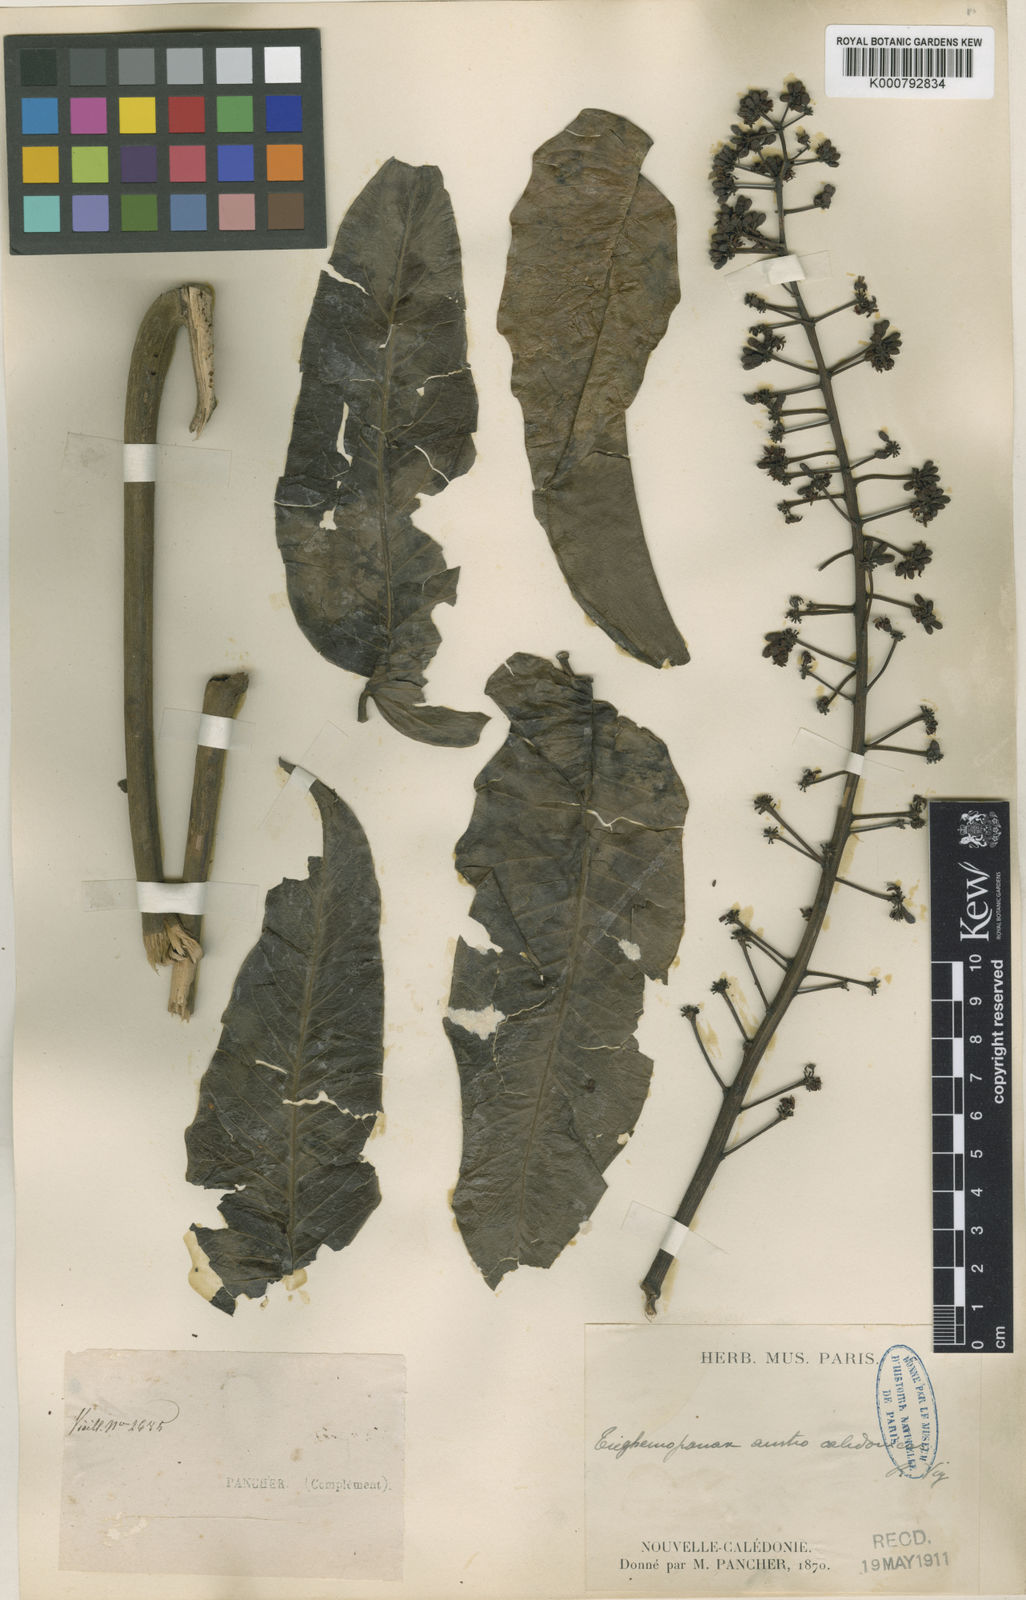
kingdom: Plantae
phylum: Tracheophyta
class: Magnoliopsida
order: Apiales
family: Araliaceae
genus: Polyscias
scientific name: Polyscias crenata
